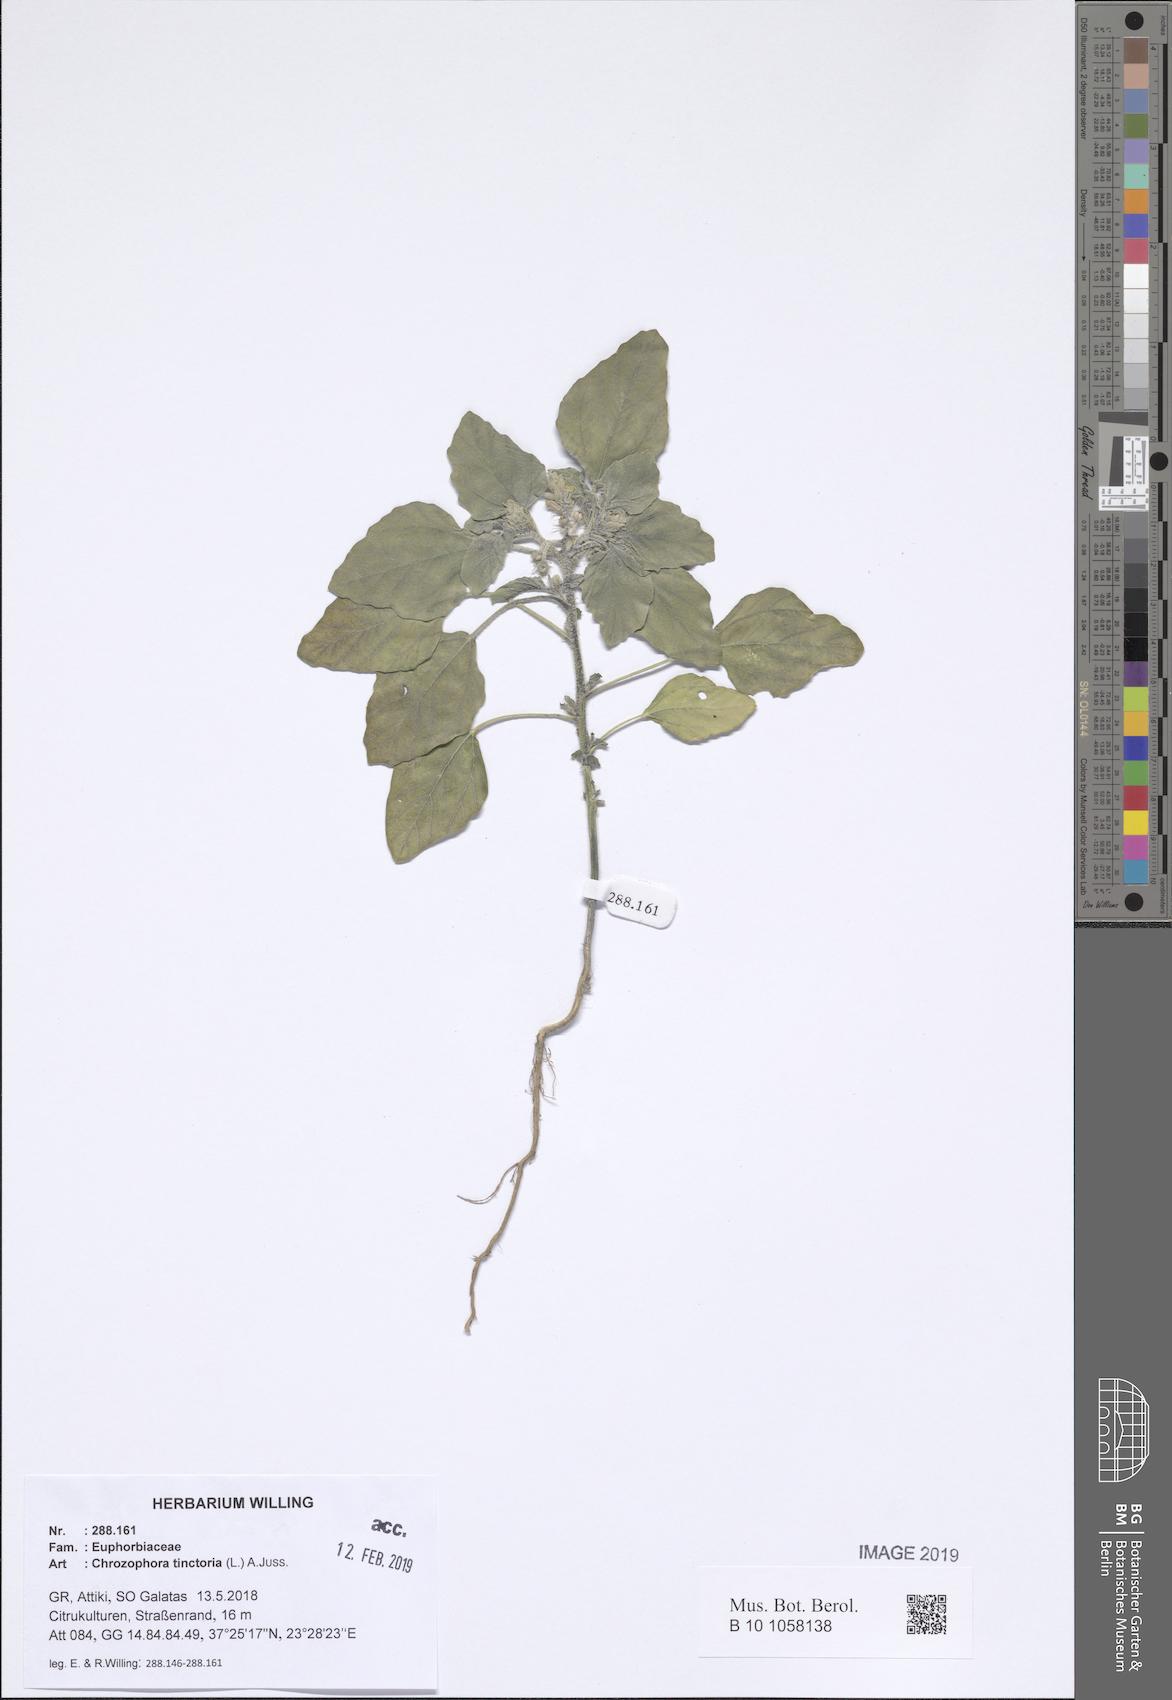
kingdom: Plantae
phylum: Tracheophyta
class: Magnoliopsida
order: Malpighiales
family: Euphorbiaceae
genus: Chrozophora
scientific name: Chrozophora tinctoria
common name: Dyer's litmus
